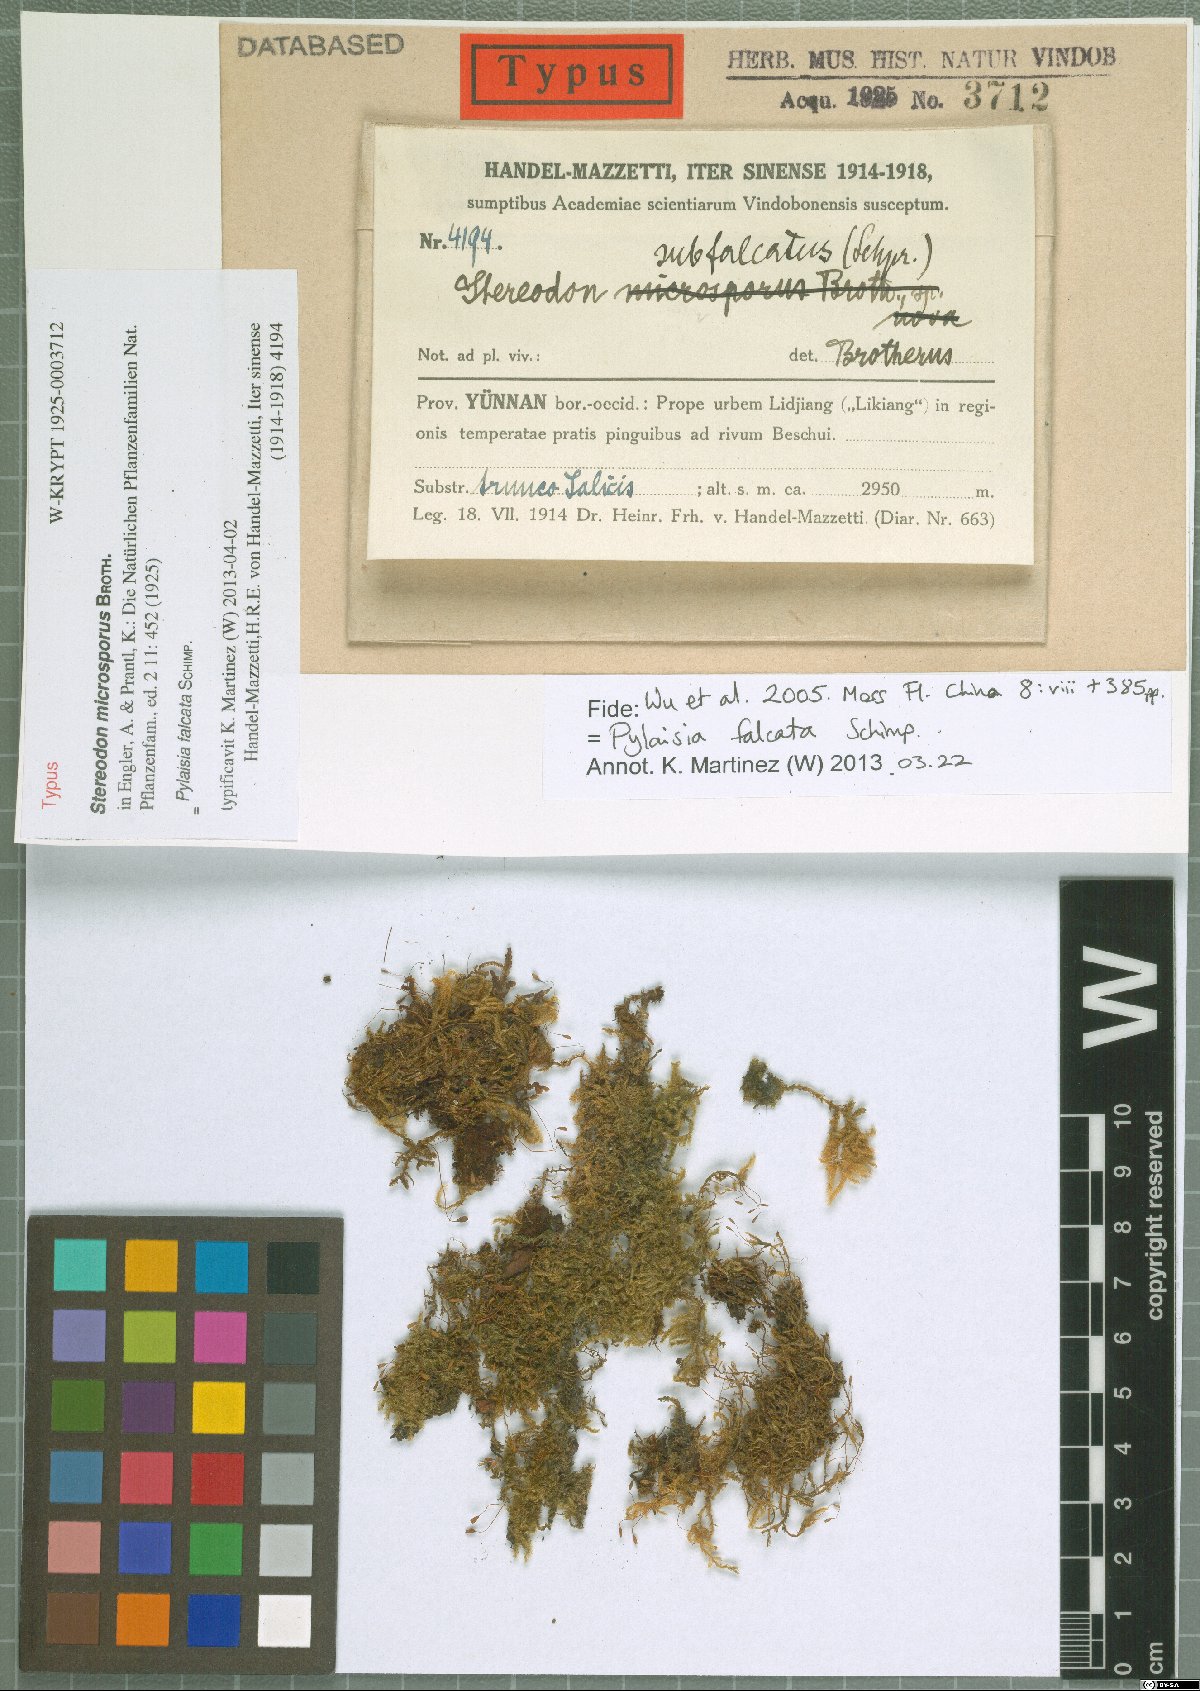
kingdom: Plantae
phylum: Bryophyta
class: Bryopsida
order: Hypnales
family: Pylaisiaceae
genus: Pylaisia
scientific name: Pylaisia falcata
